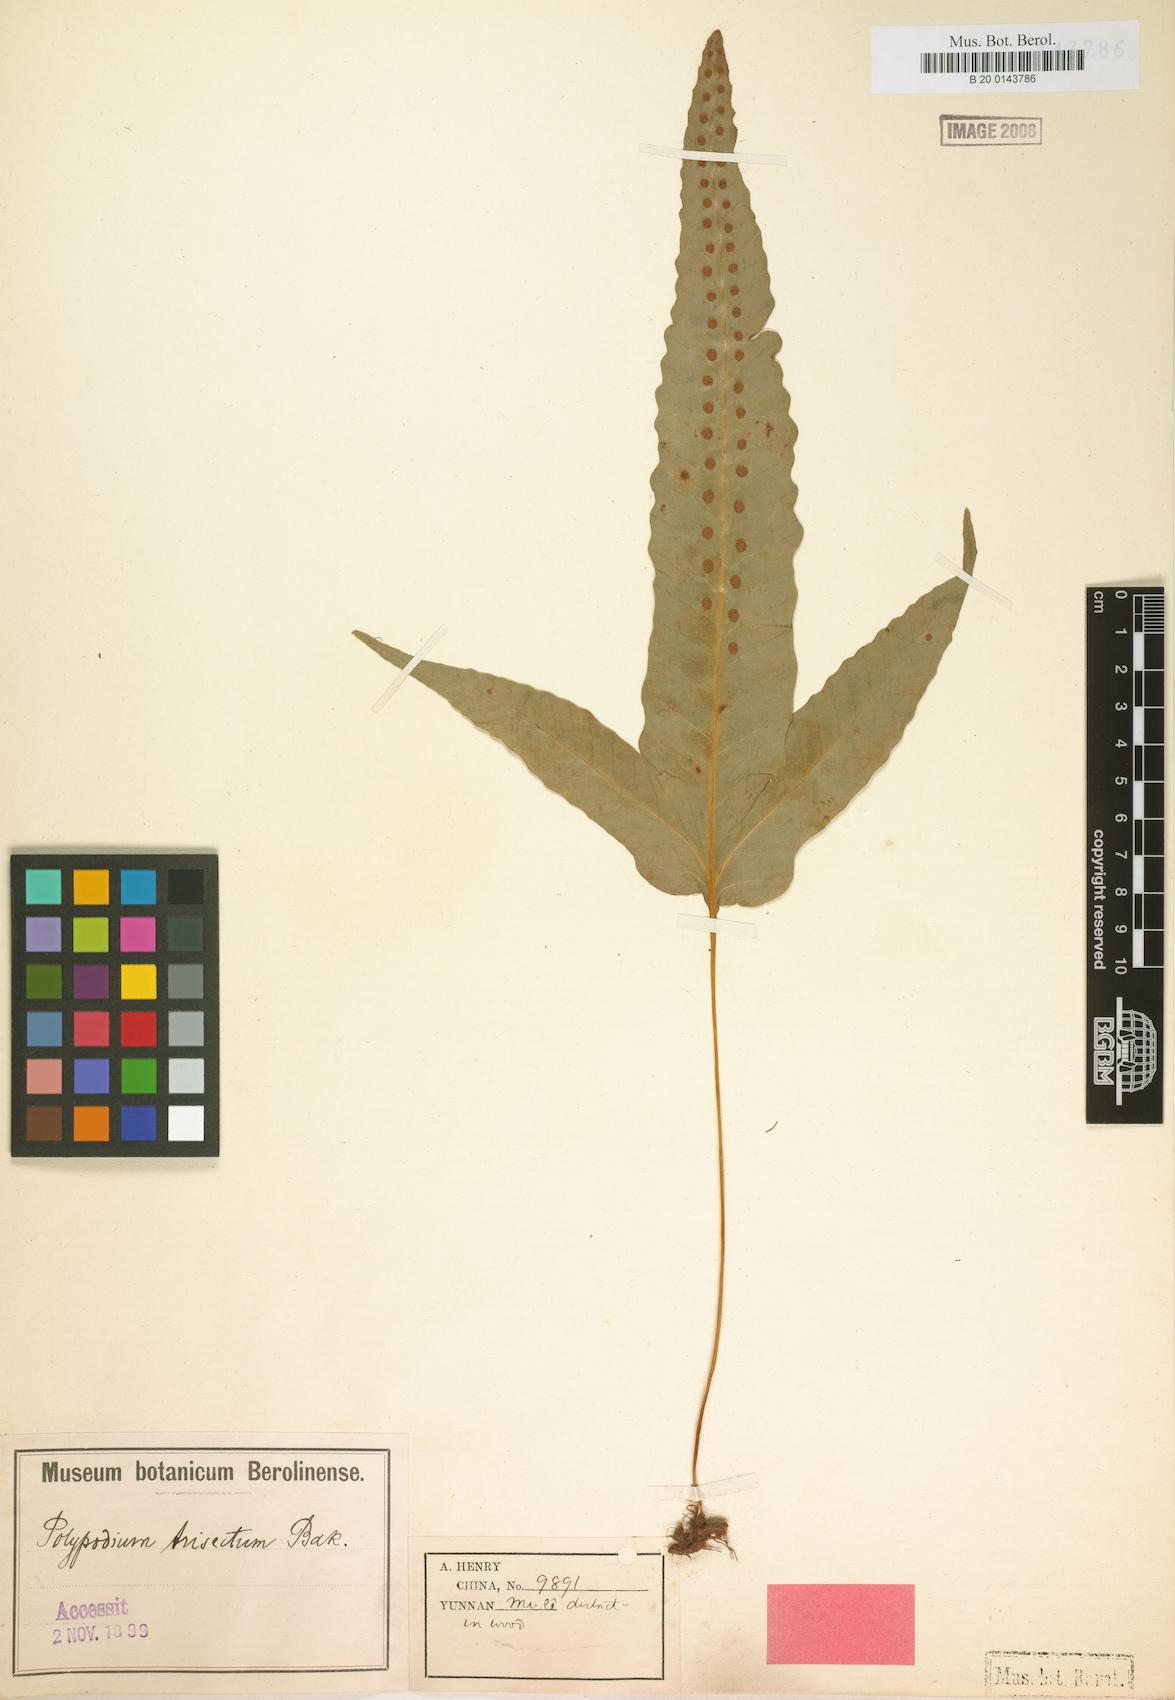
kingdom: Plantae
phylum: Tracheophyta
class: Polypodiopsida
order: Polypodiales
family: Polypodiaceae
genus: Selliguea
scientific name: Selliguea trisecta
